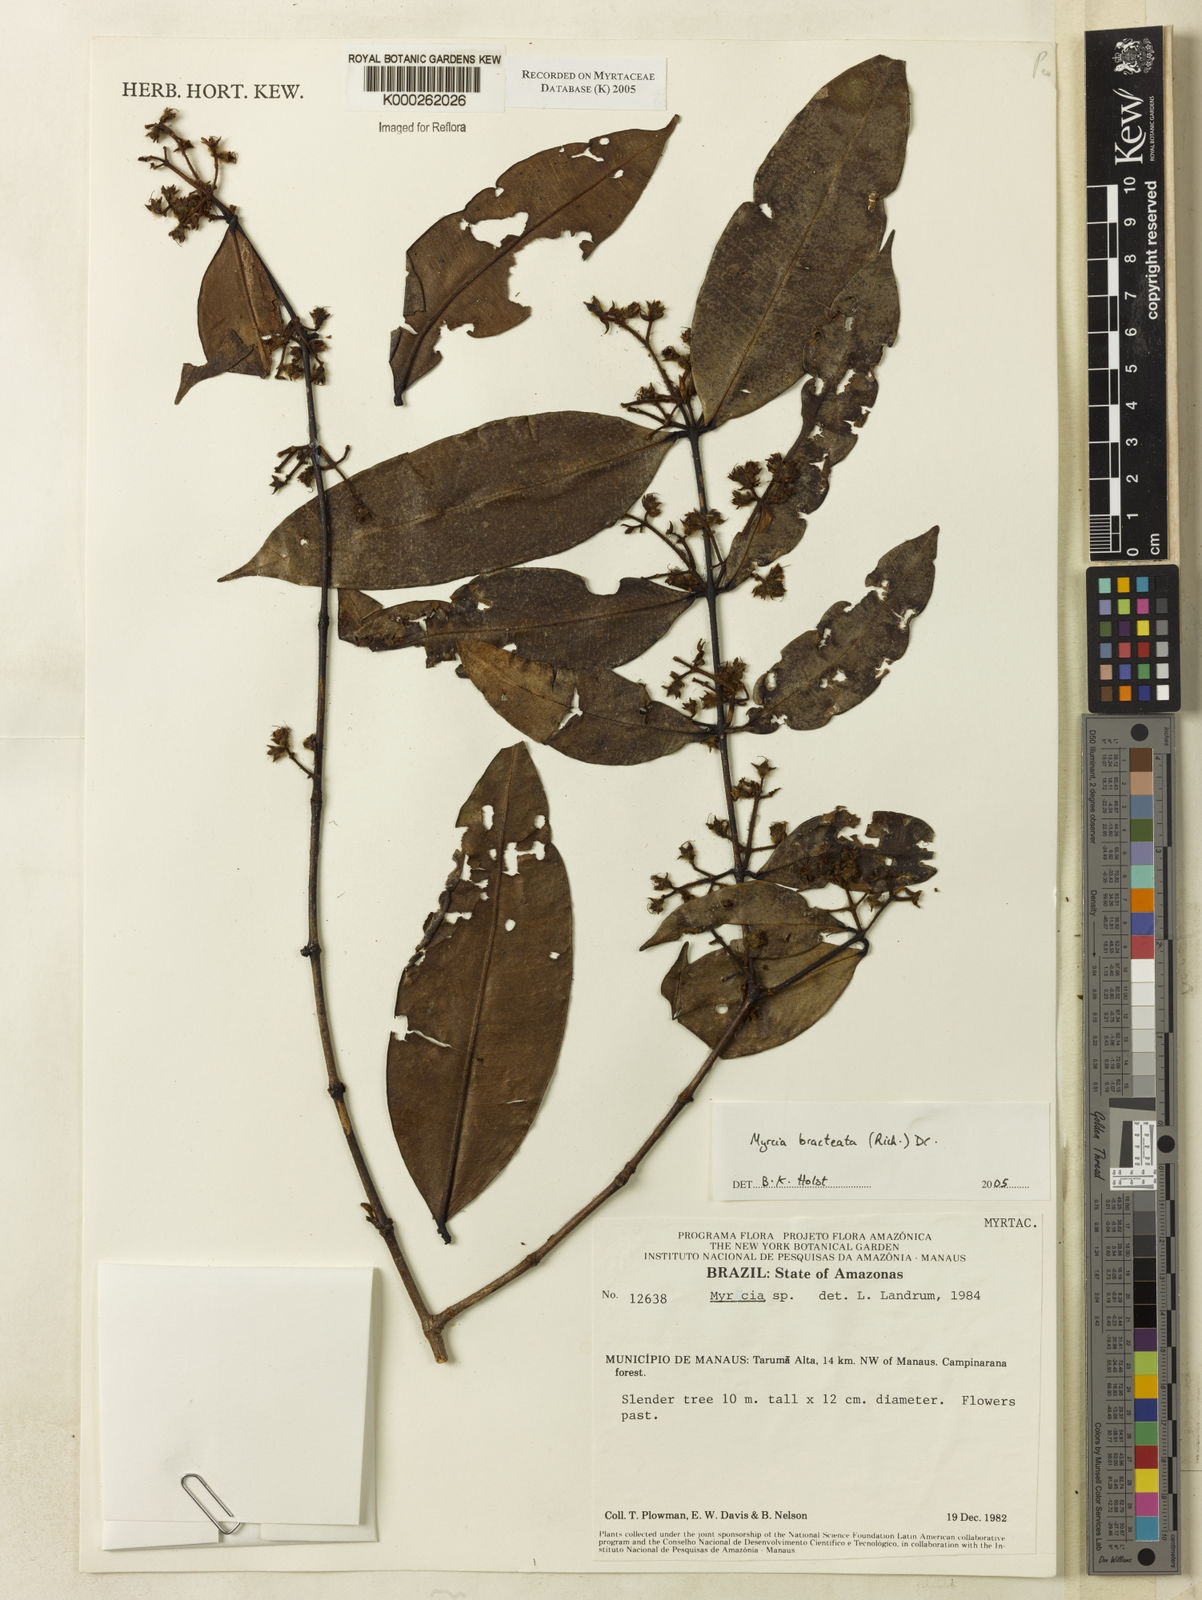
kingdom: Plantae
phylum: Tracheophyta
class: Magnoliopsida
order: Myrtales
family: Myrtaceae
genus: Myrcia
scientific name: Myrcia bracteata
